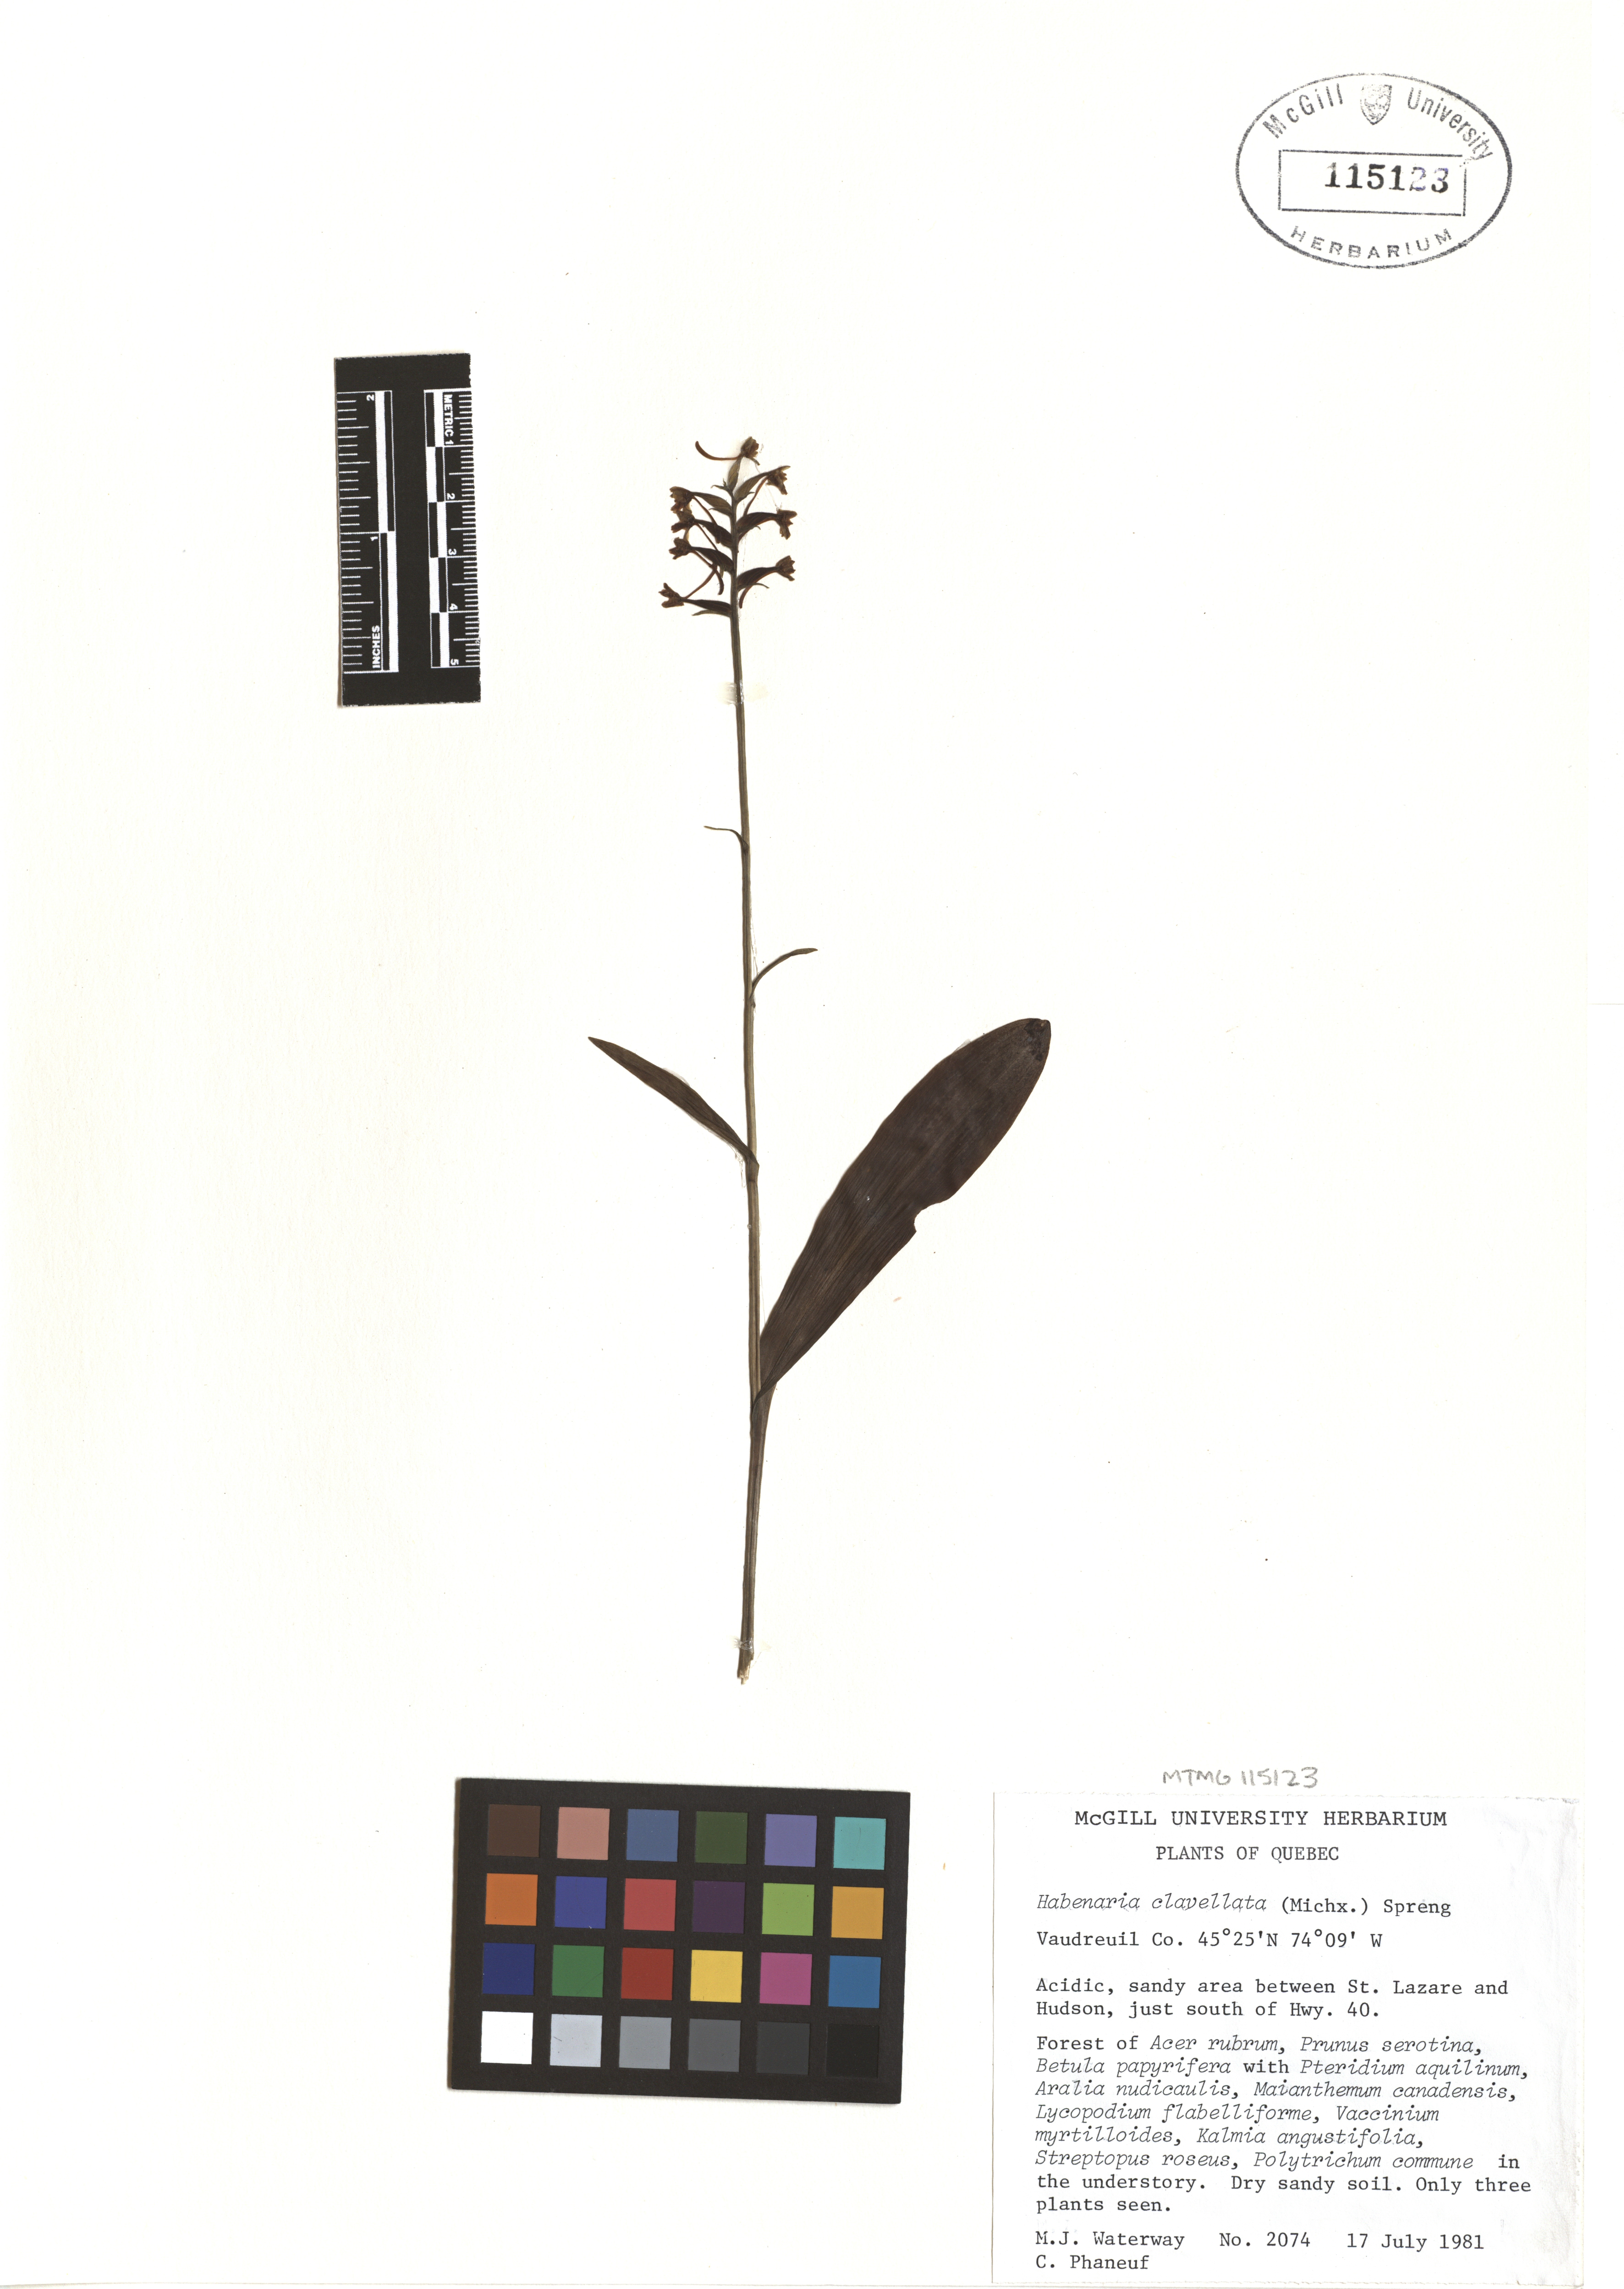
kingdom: Plantae
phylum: Tracheophyta
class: Liliopsida
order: Asparagales
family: Orchidaceae
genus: Platanthera
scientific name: Platanthera clavellata
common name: Club-spur orchid
